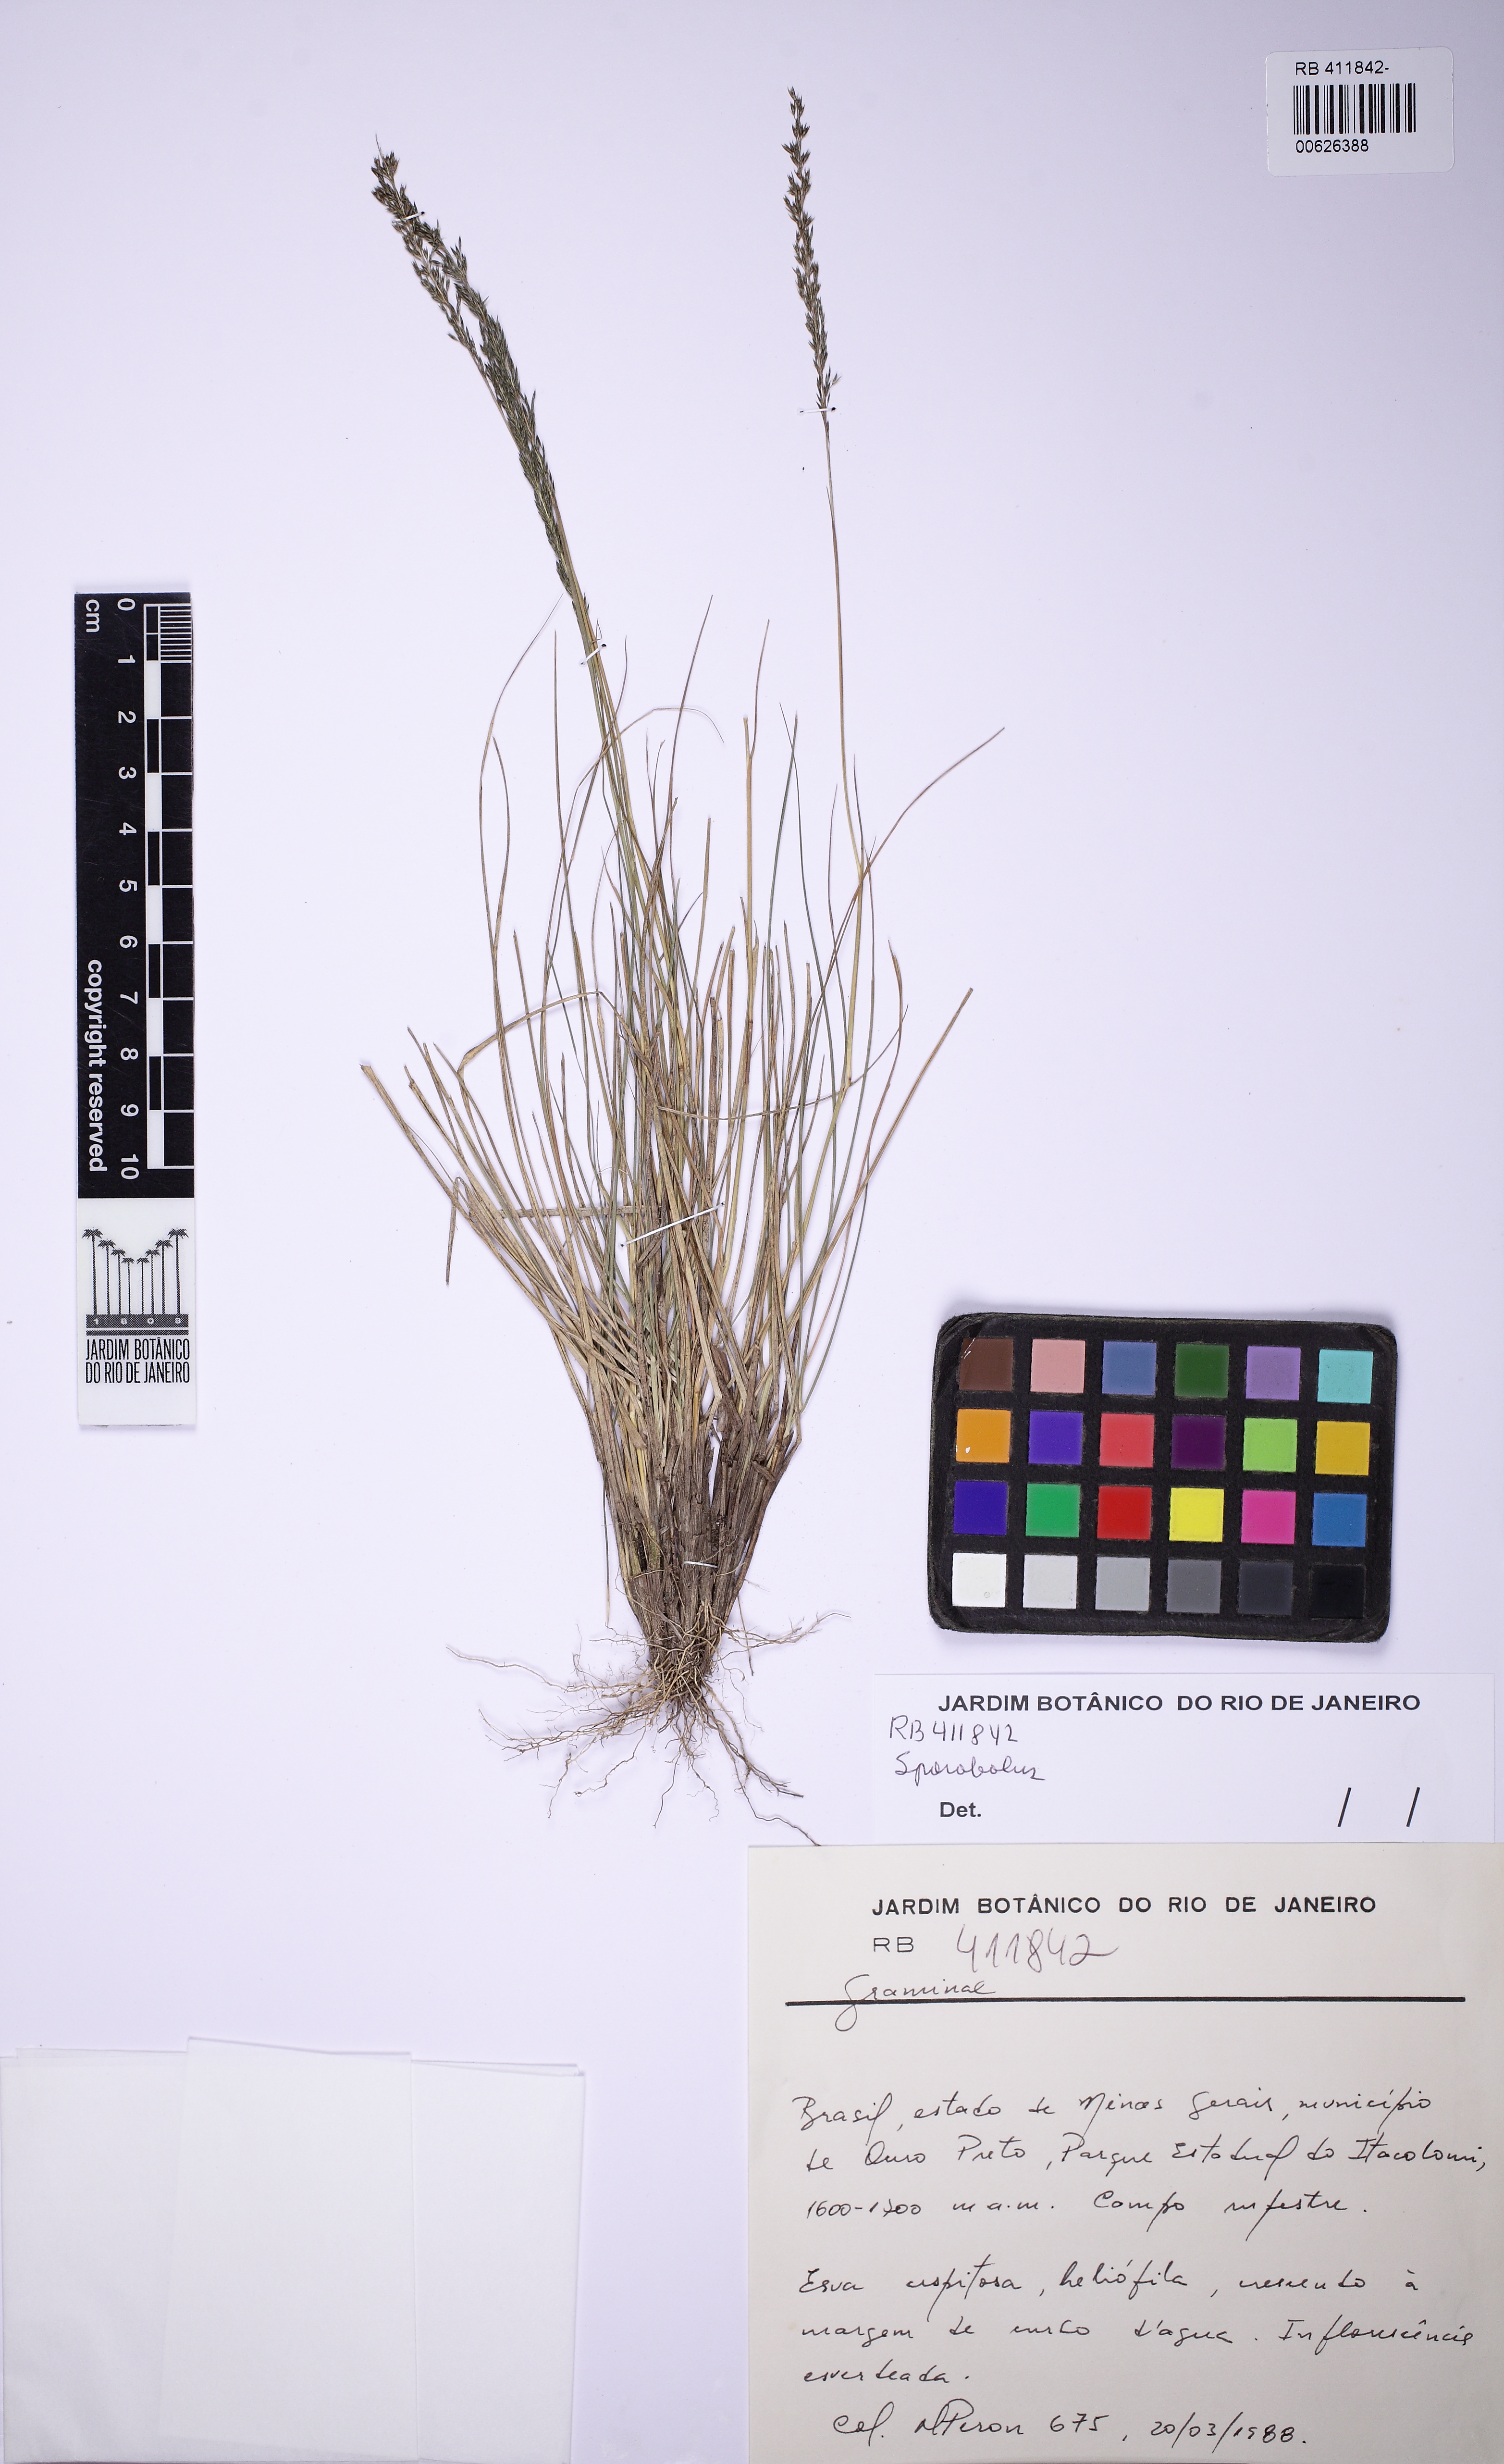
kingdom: Plantae
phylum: Tracheophyta
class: Liliopsida
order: Poales
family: Poaceae
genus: Sporobolus
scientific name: Sporobolus
